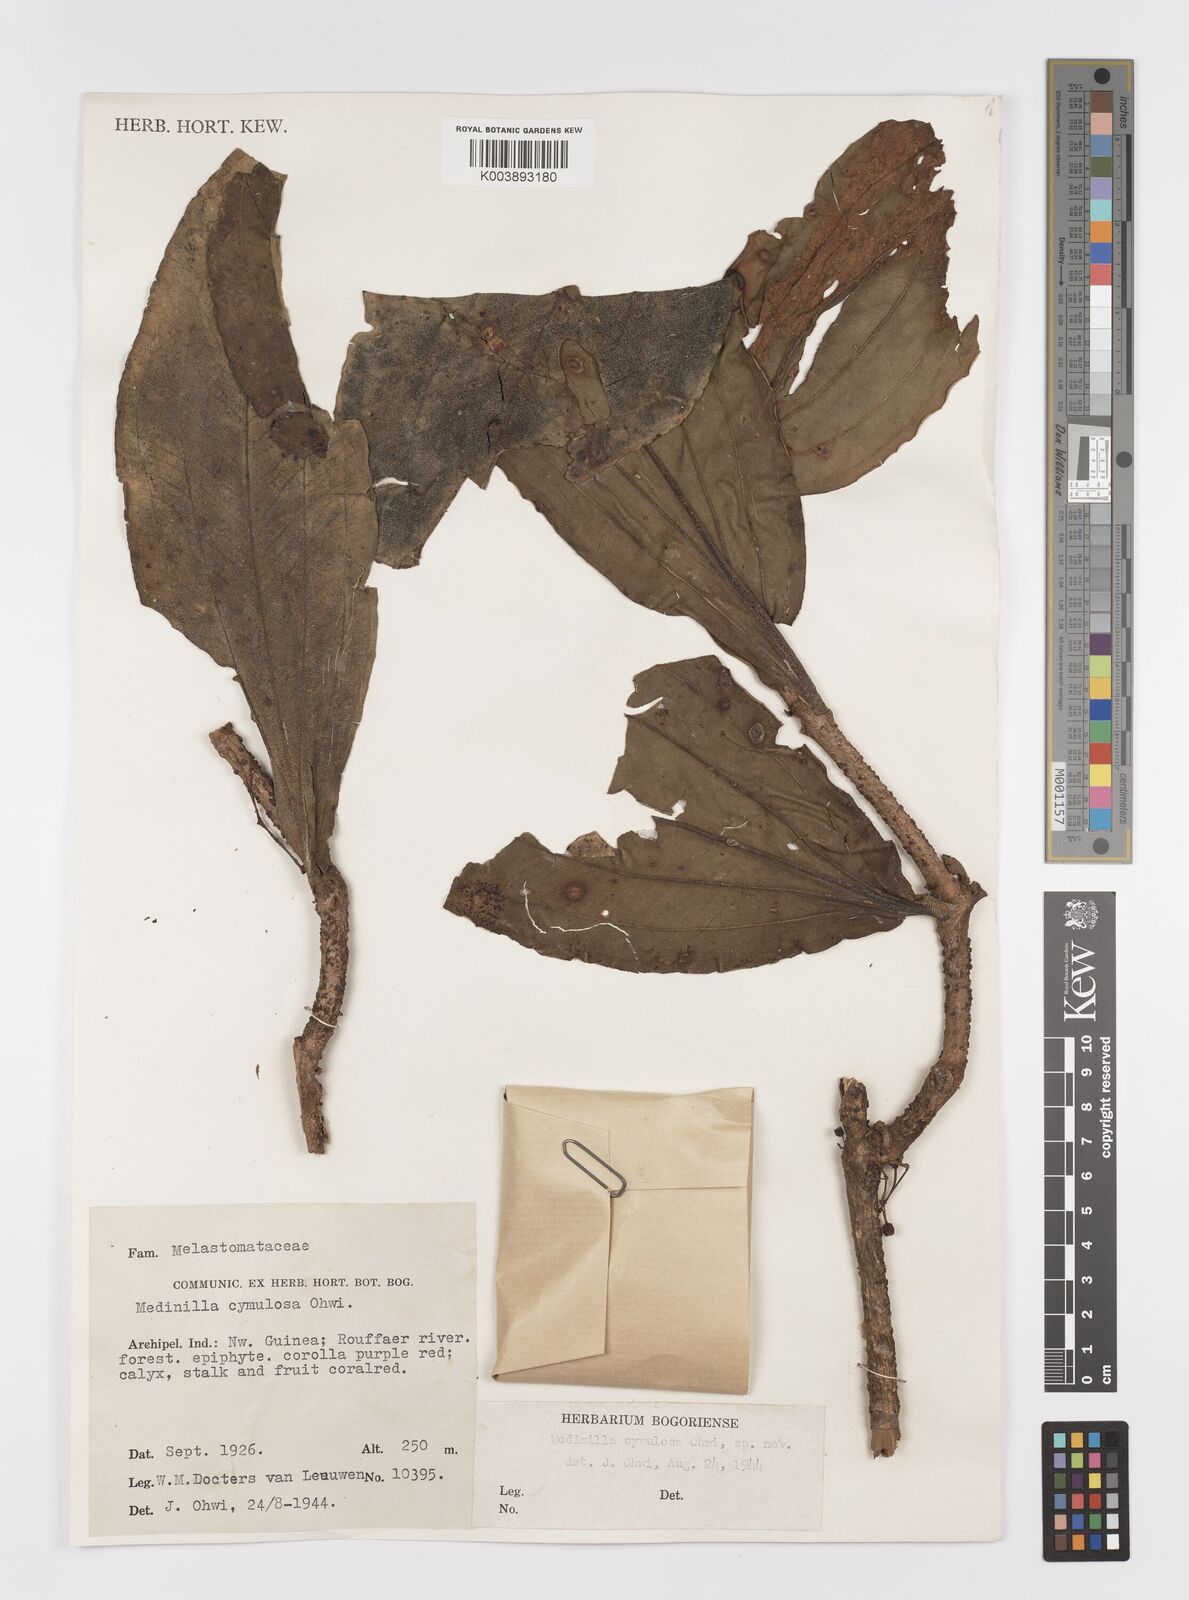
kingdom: Plantae
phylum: Tracheophyta
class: Magnoliopsida
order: Myrtales
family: Melastomataceae
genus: Medinilla
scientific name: Medinilla
